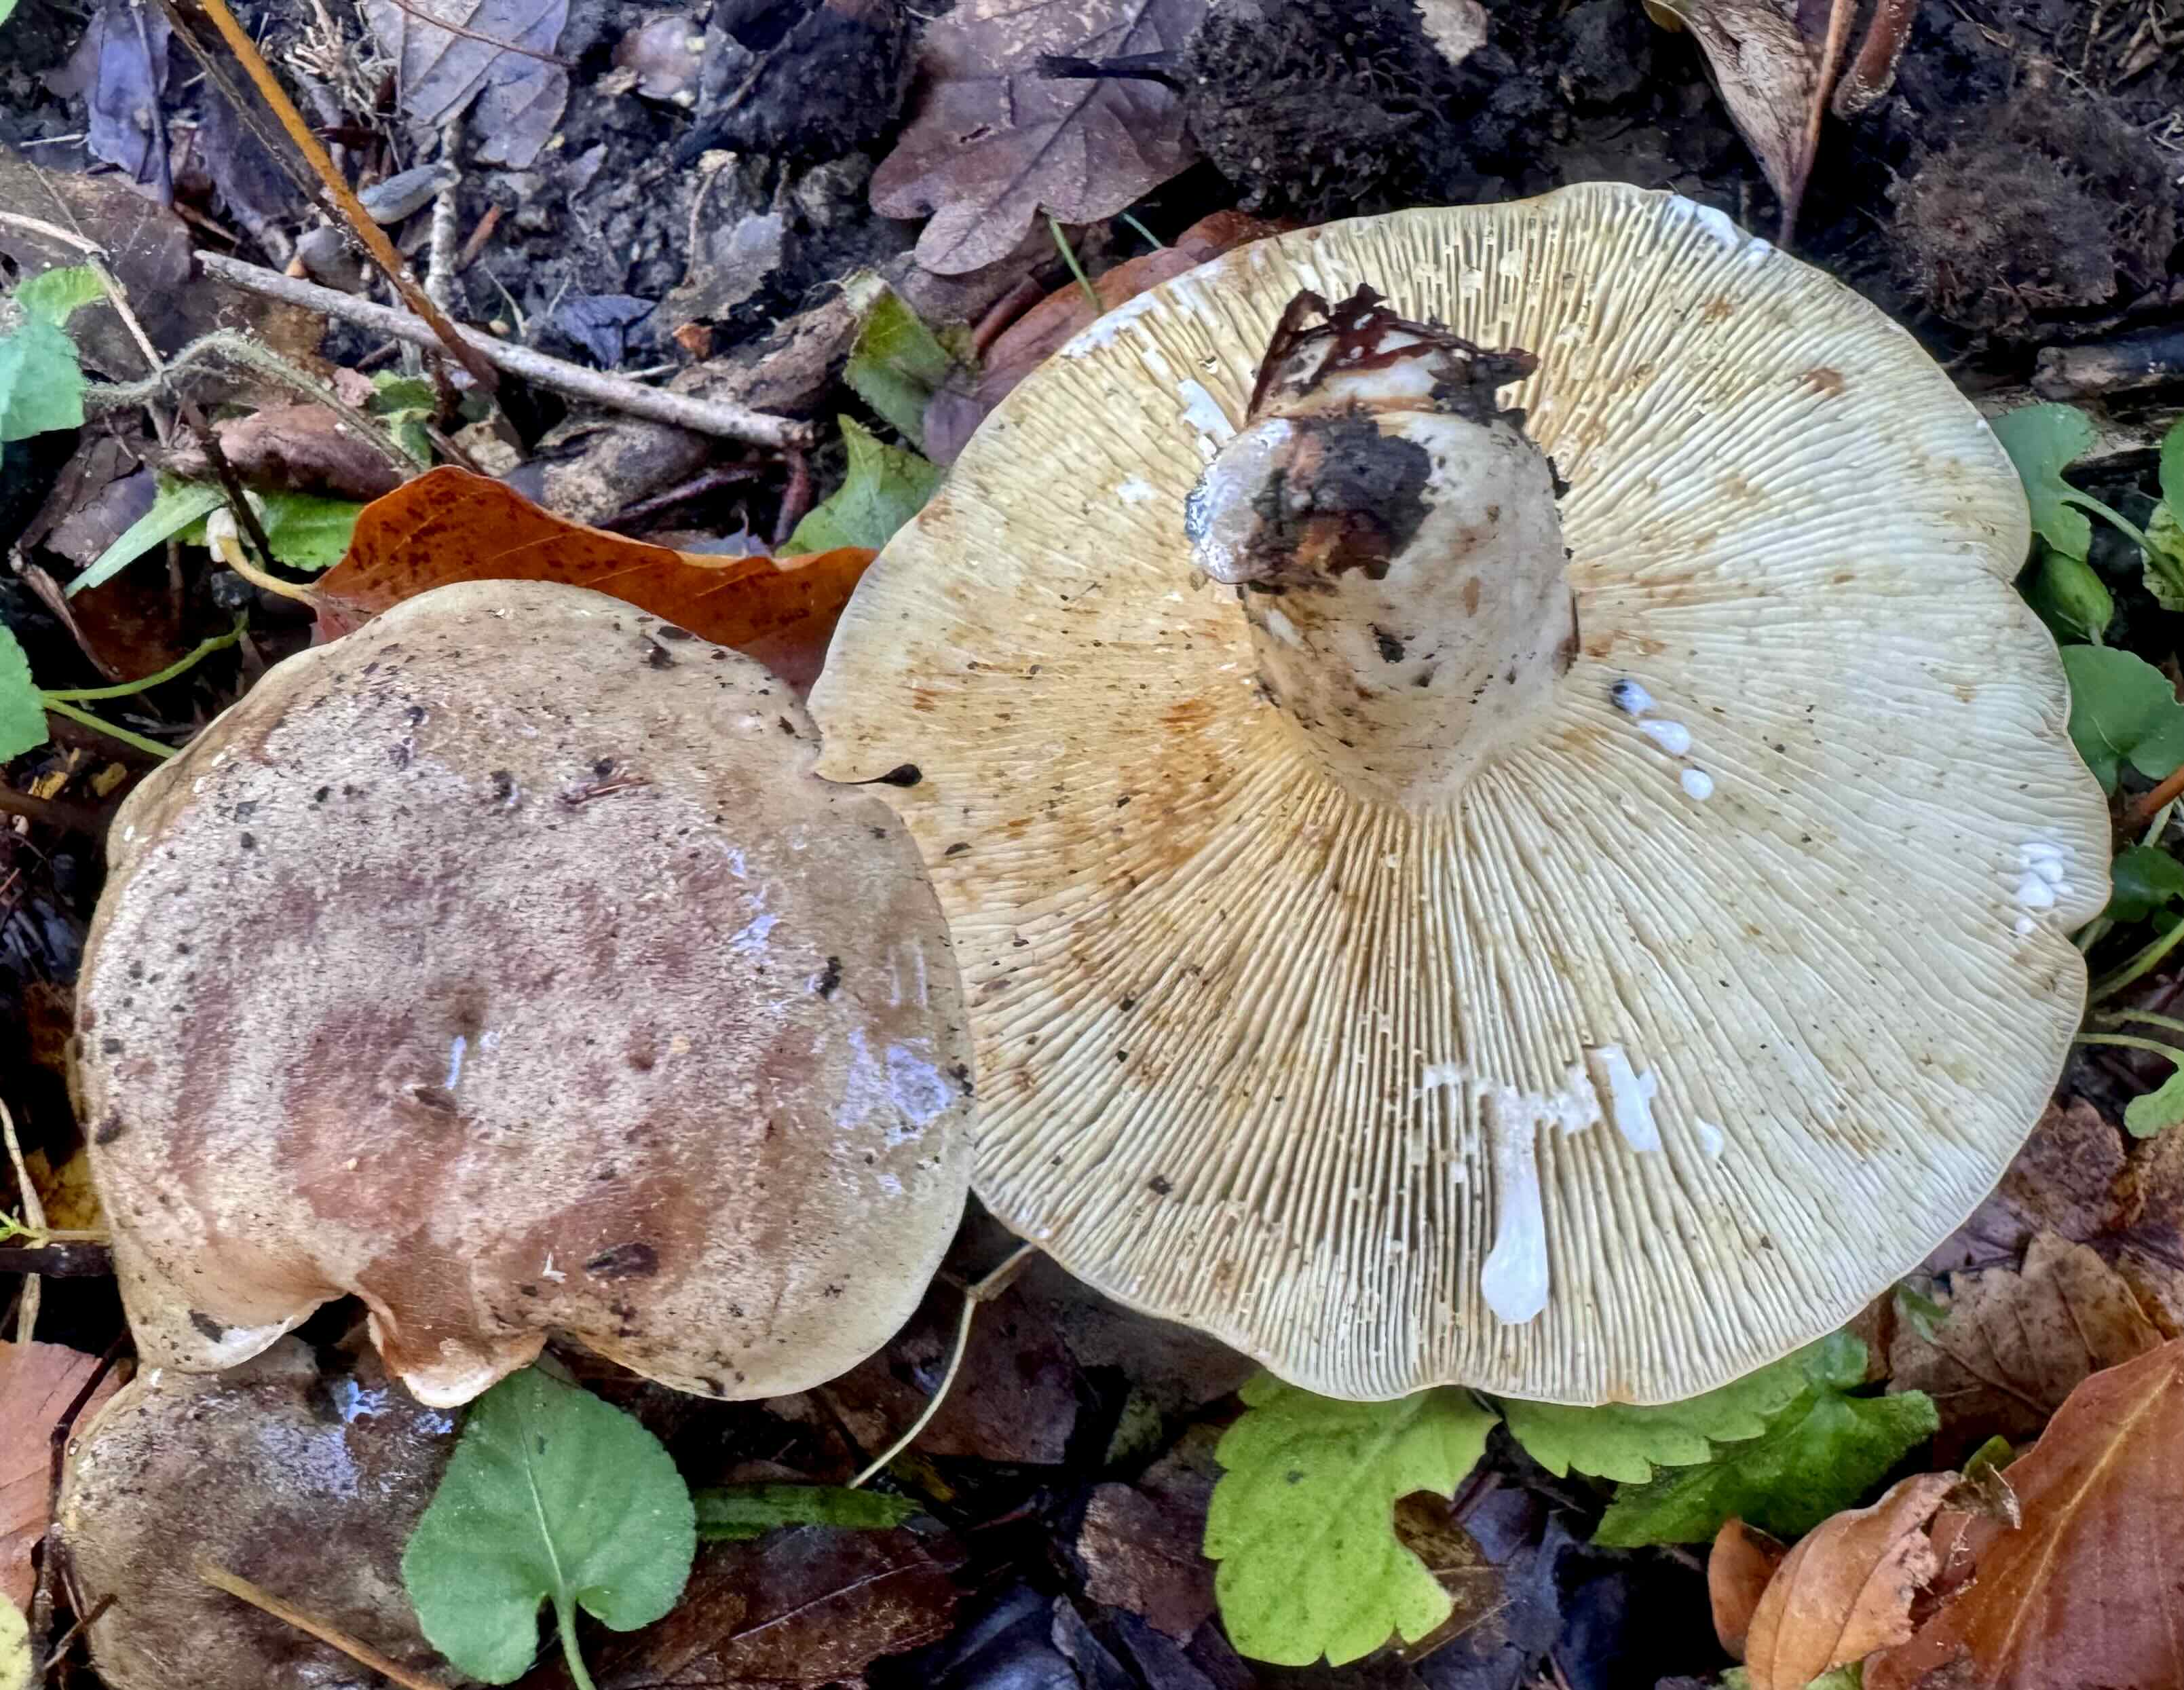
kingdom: Fungi
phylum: Basidiomycota
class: Agaricomycetes
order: Russulales
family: Russulaceae
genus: Lactarius
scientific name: Lactarius blennius
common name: dråbeplettet mælkehat
